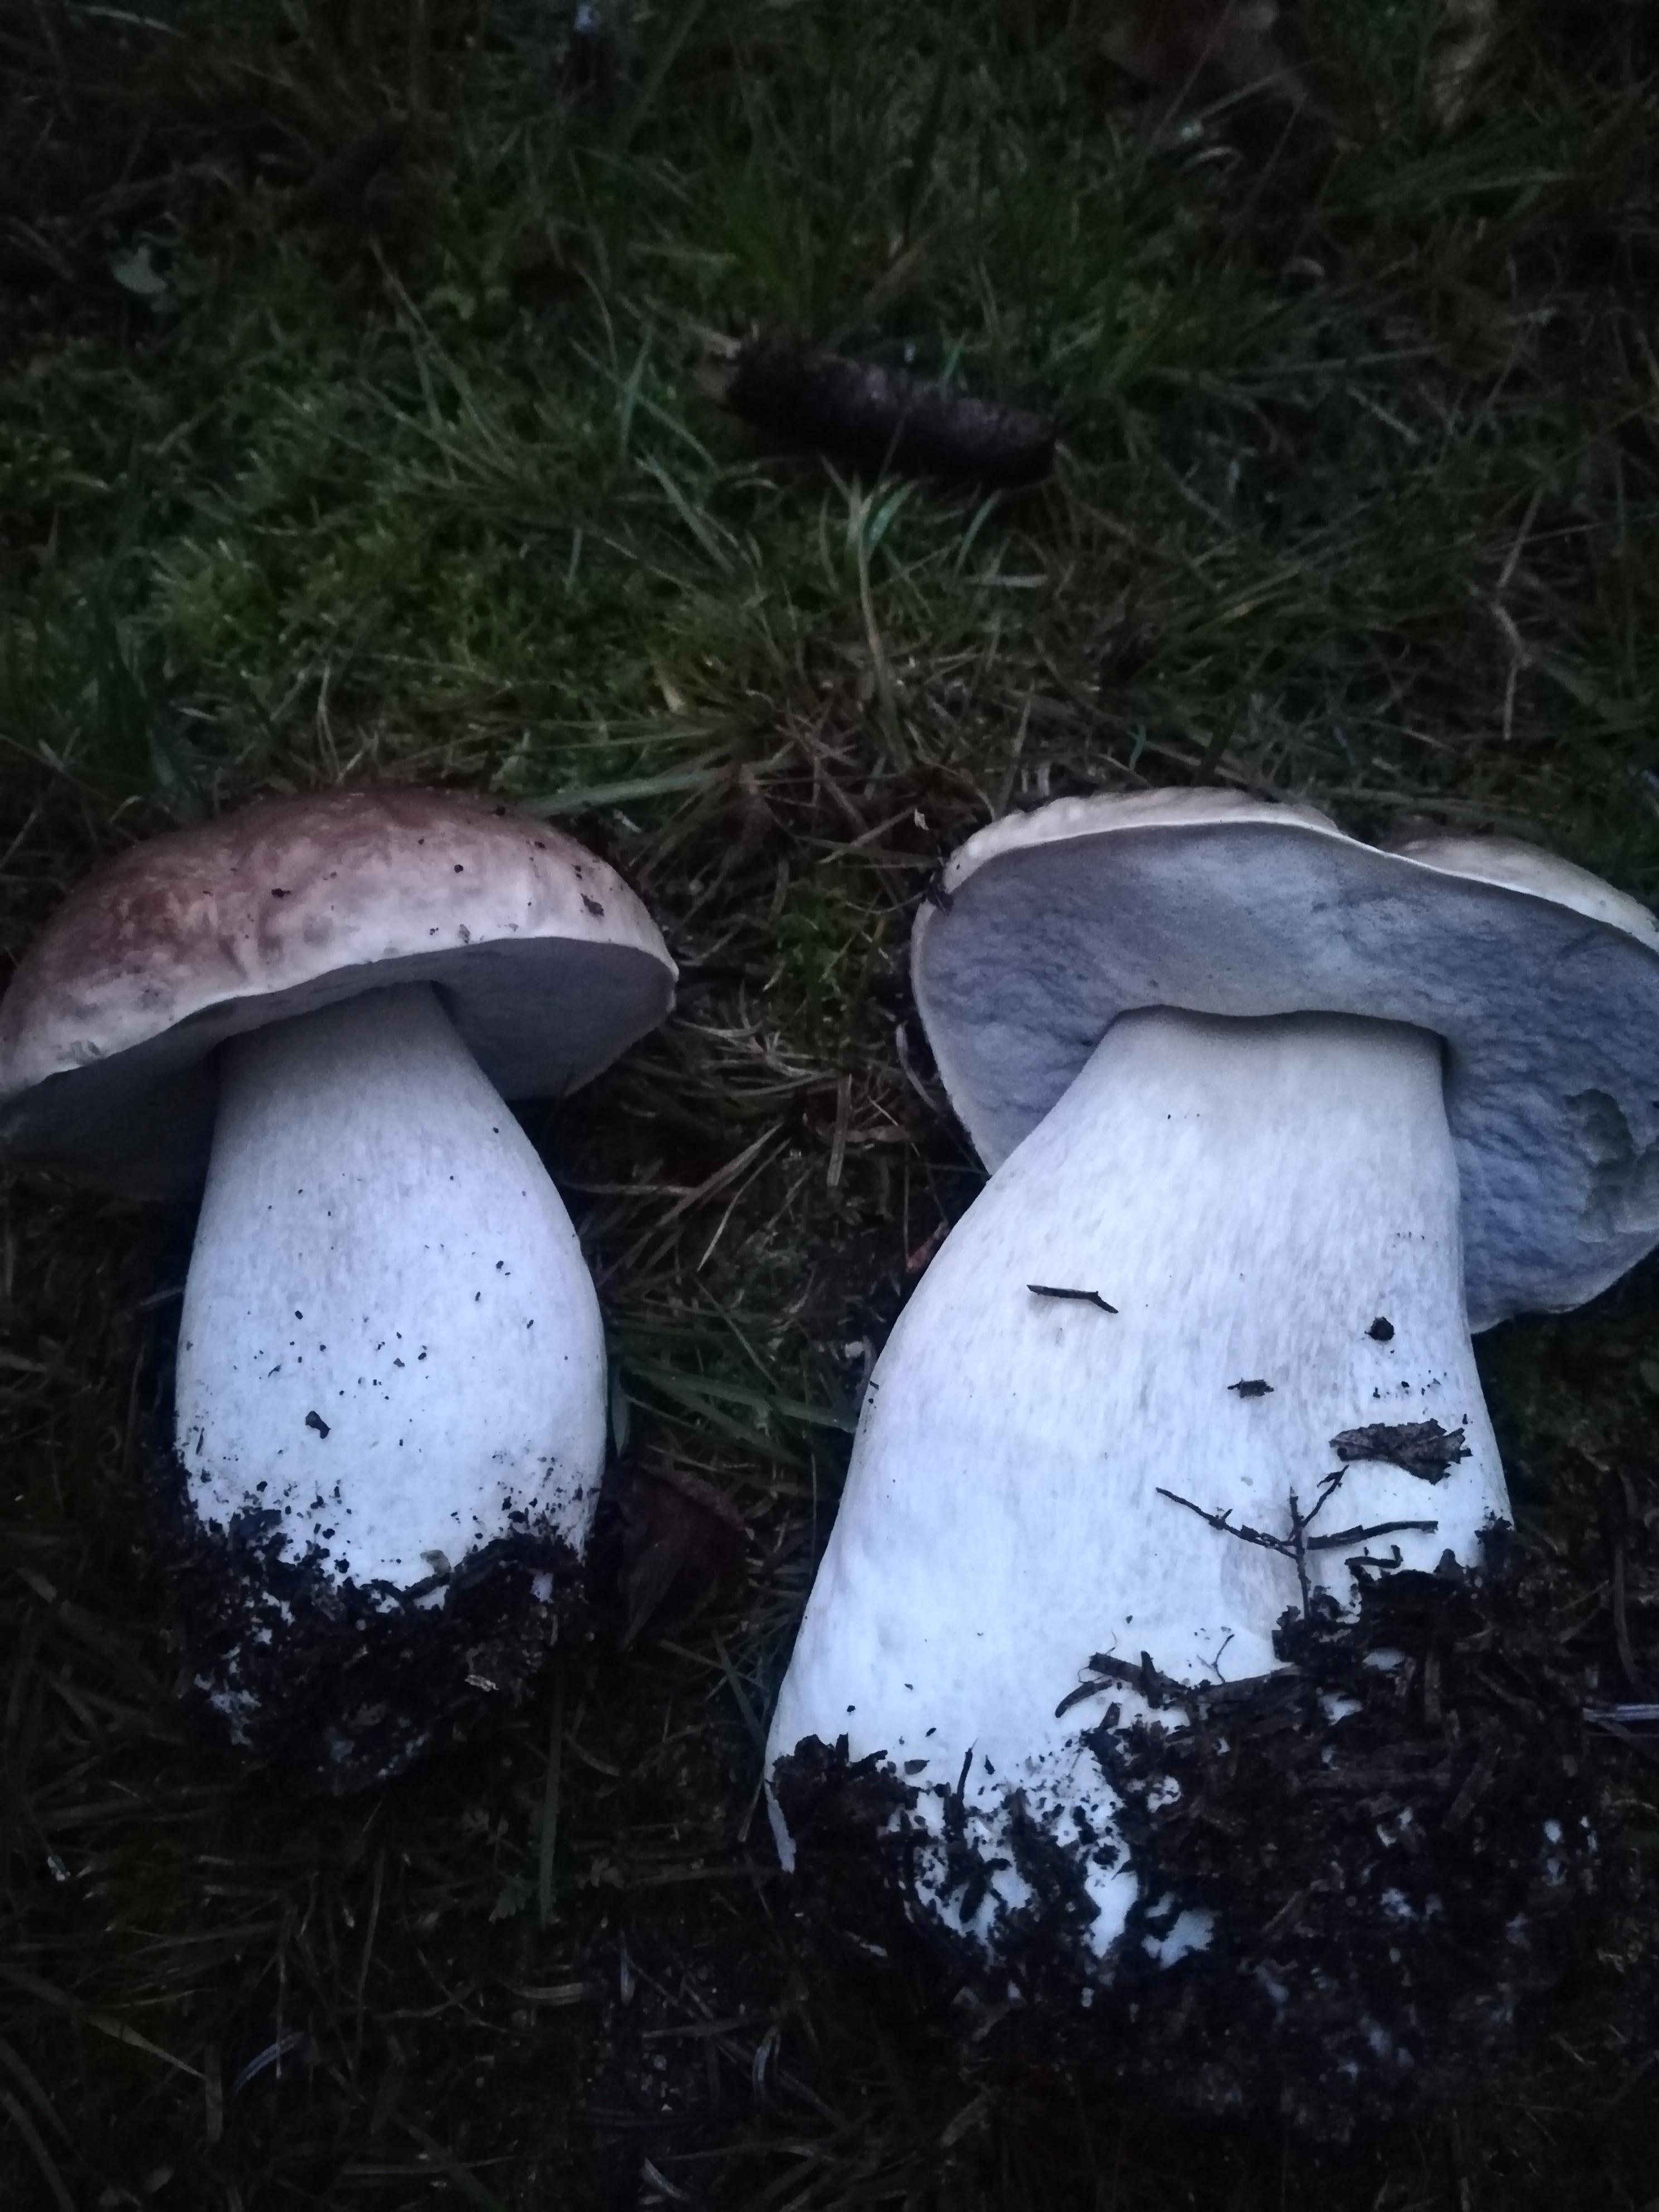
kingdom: Fungi
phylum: Basidiomycota
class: Agaricomycetes
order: Boletales
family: Boletaceae
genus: Boletus
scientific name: Boletus edulis
